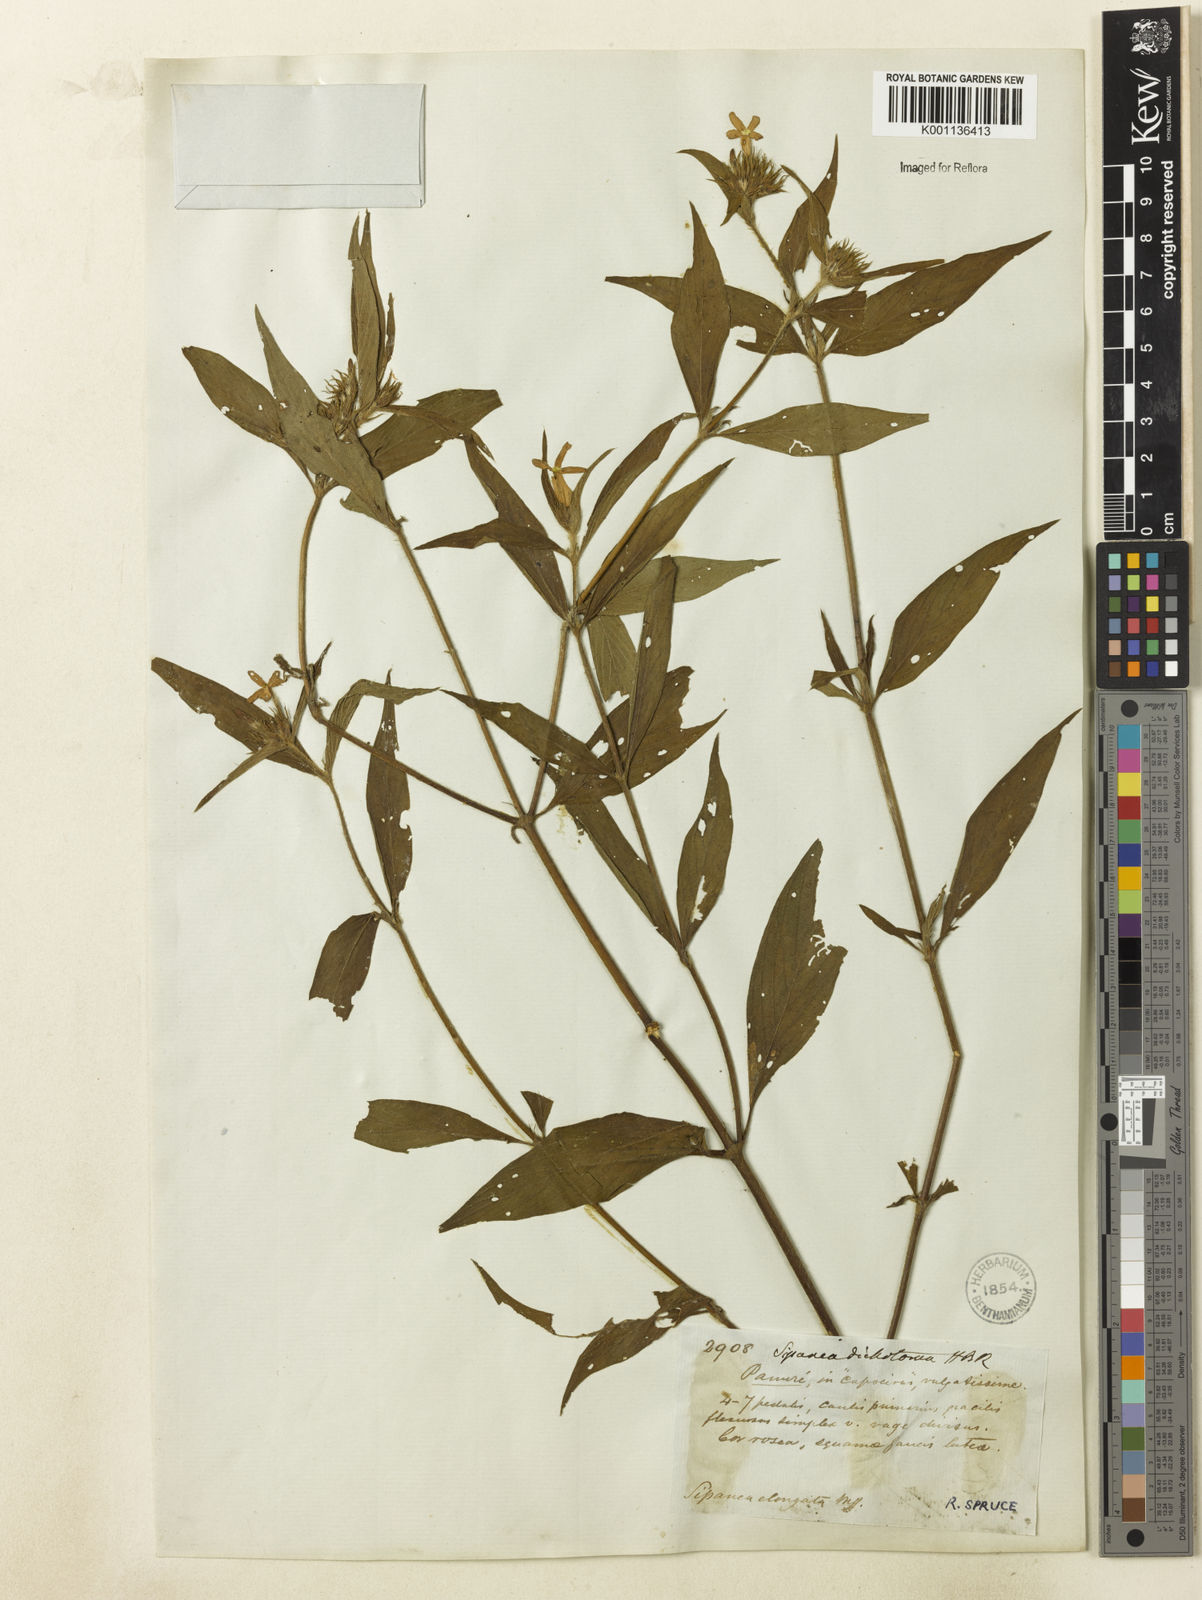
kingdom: Plantae
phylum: Tracheophyta
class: Magnoliopsida
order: Gentianales
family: Rubiaceae
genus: Sipanea
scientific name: Sipanea pratensis
